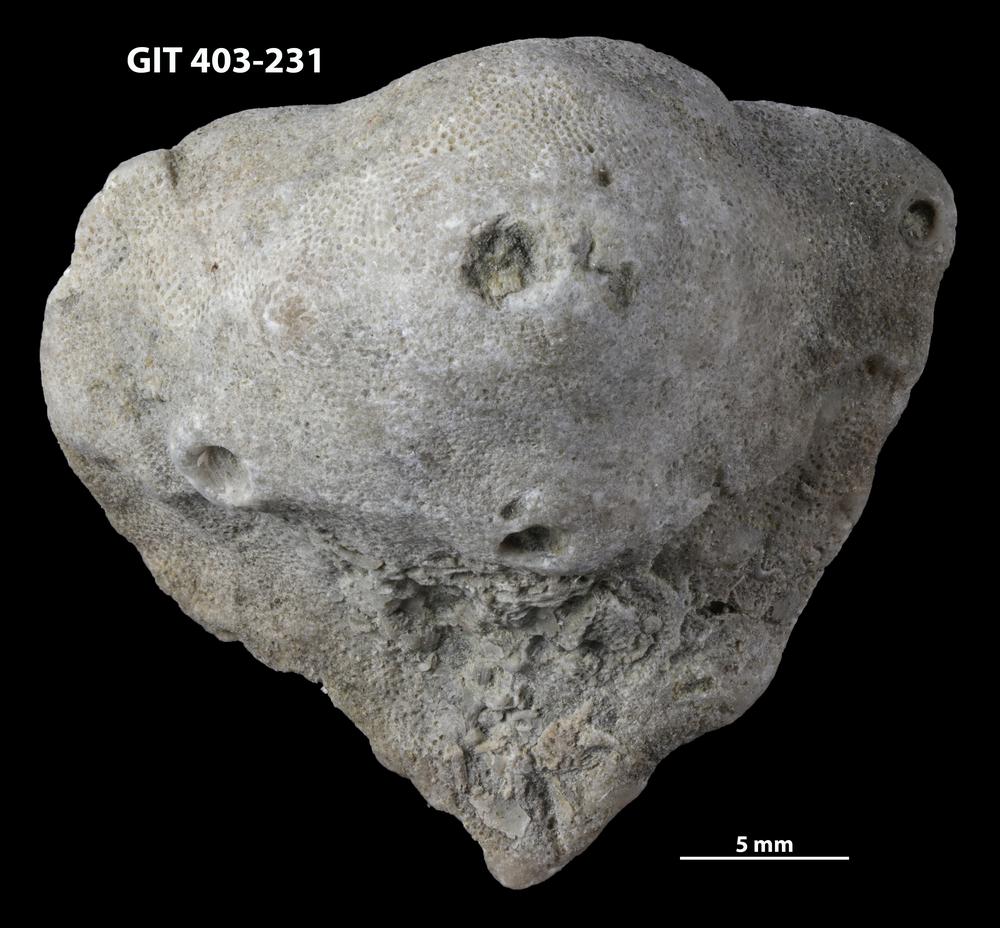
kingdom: Animalia
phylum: Bryozoa
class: Stenolaemata
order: Cystoporida
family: Fistuliporidae
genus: Fistulipora
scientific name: Fistulipora przhidolensis
